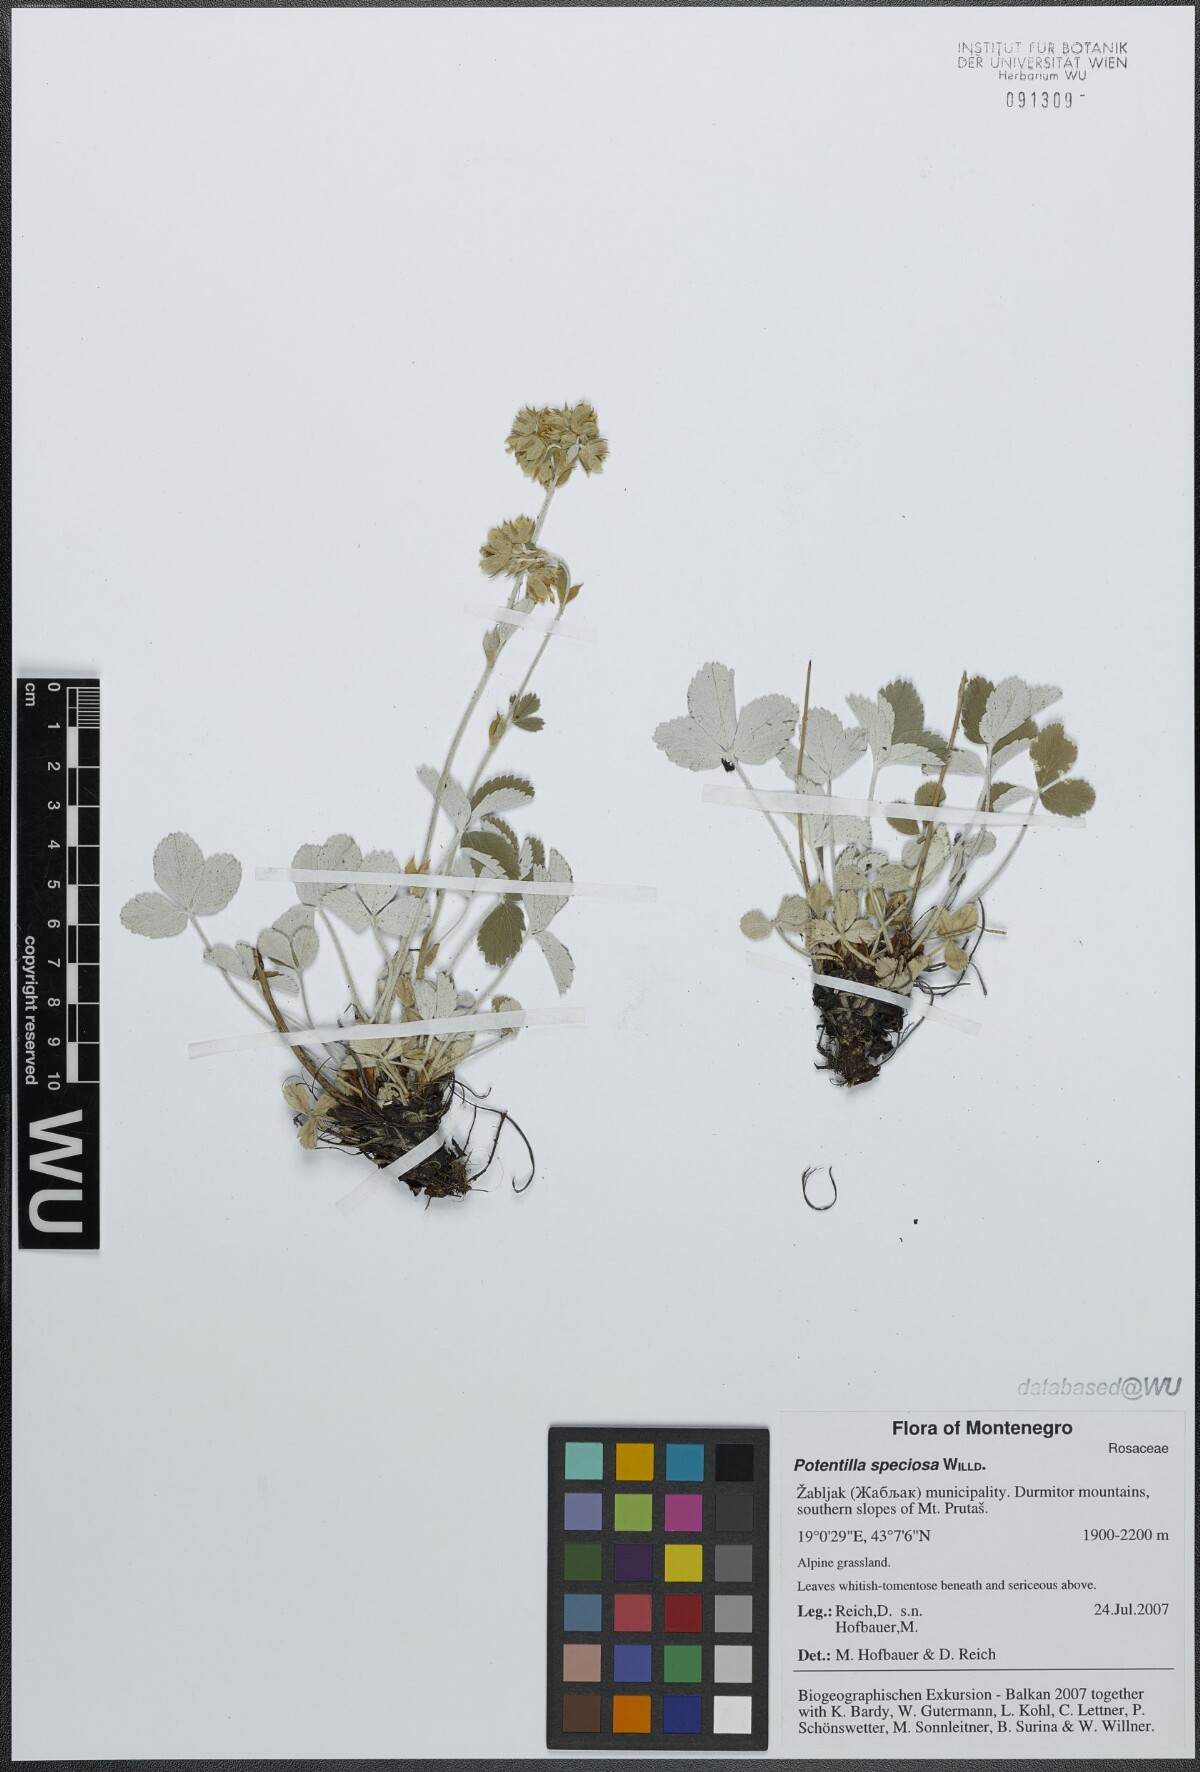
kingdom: Plantae
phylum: Tracheophyta
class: Magnoliopsida
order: Rosales
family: Rosaceae
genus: Potentilla
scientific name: Potentilla speciosa
